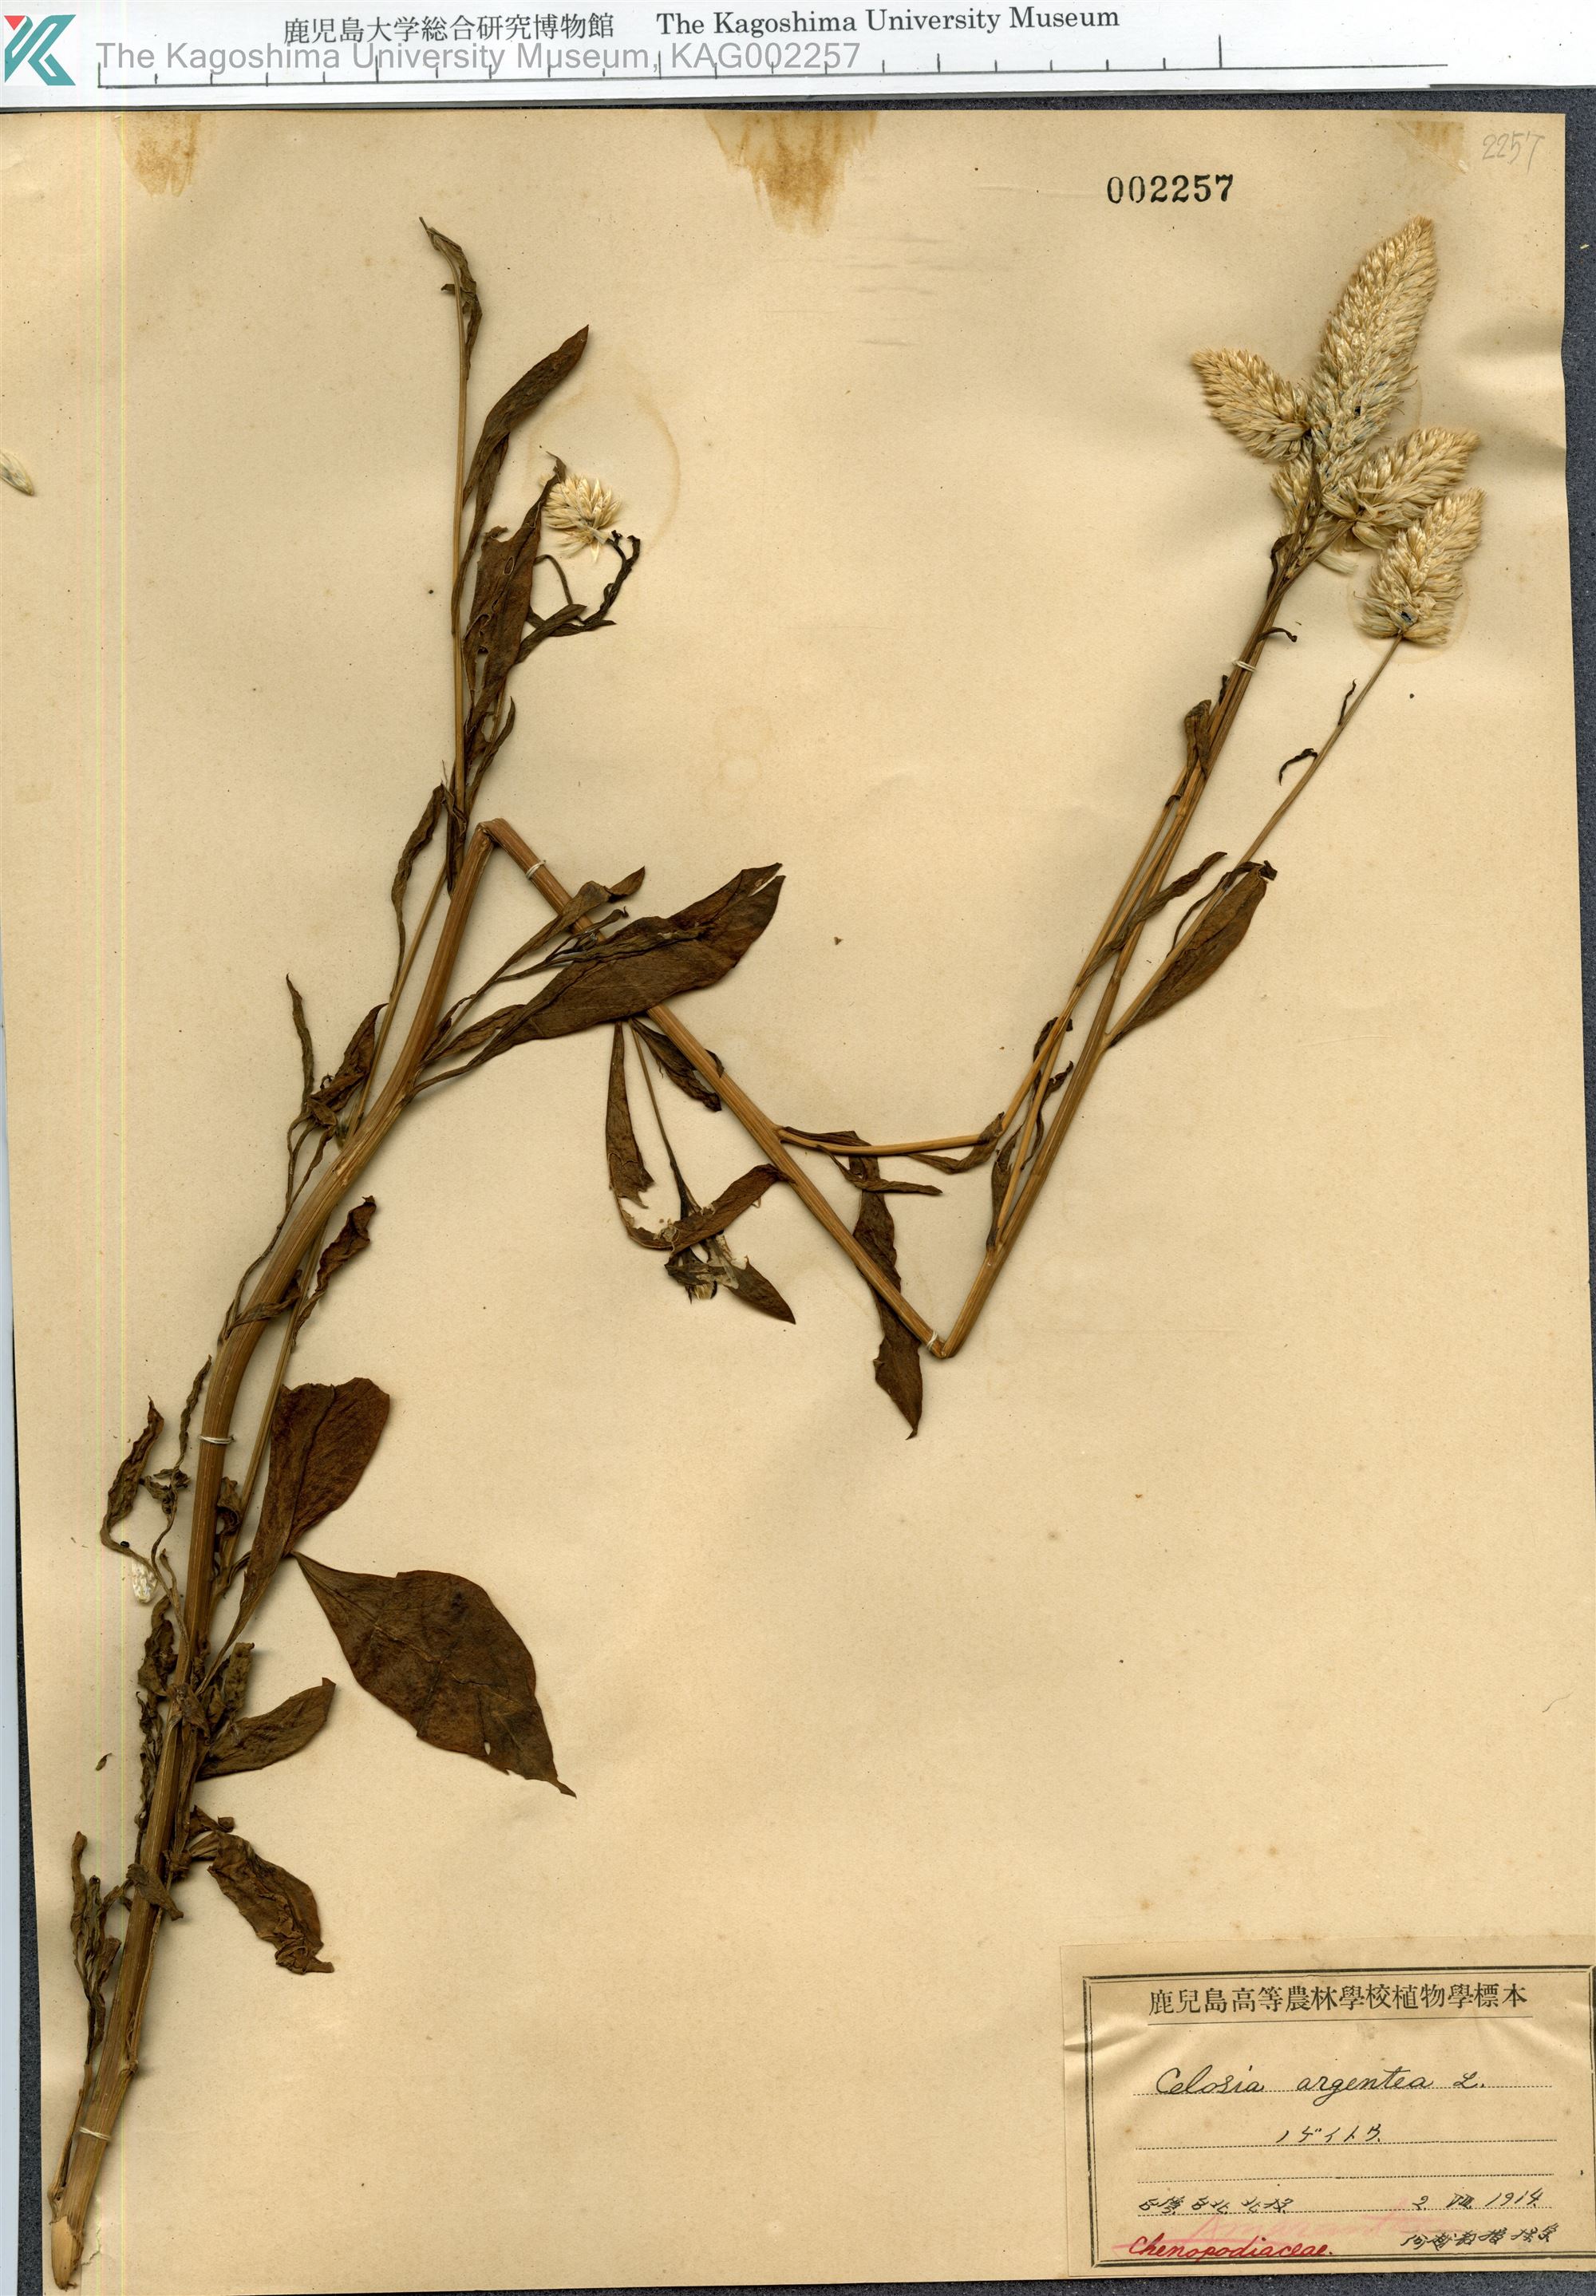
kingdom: Plantae
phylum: Tracheophyta
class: Magnoliopsida
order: Caryophyllales
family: Amaranthaceae
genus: Celosia
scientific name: Celosia argentea
